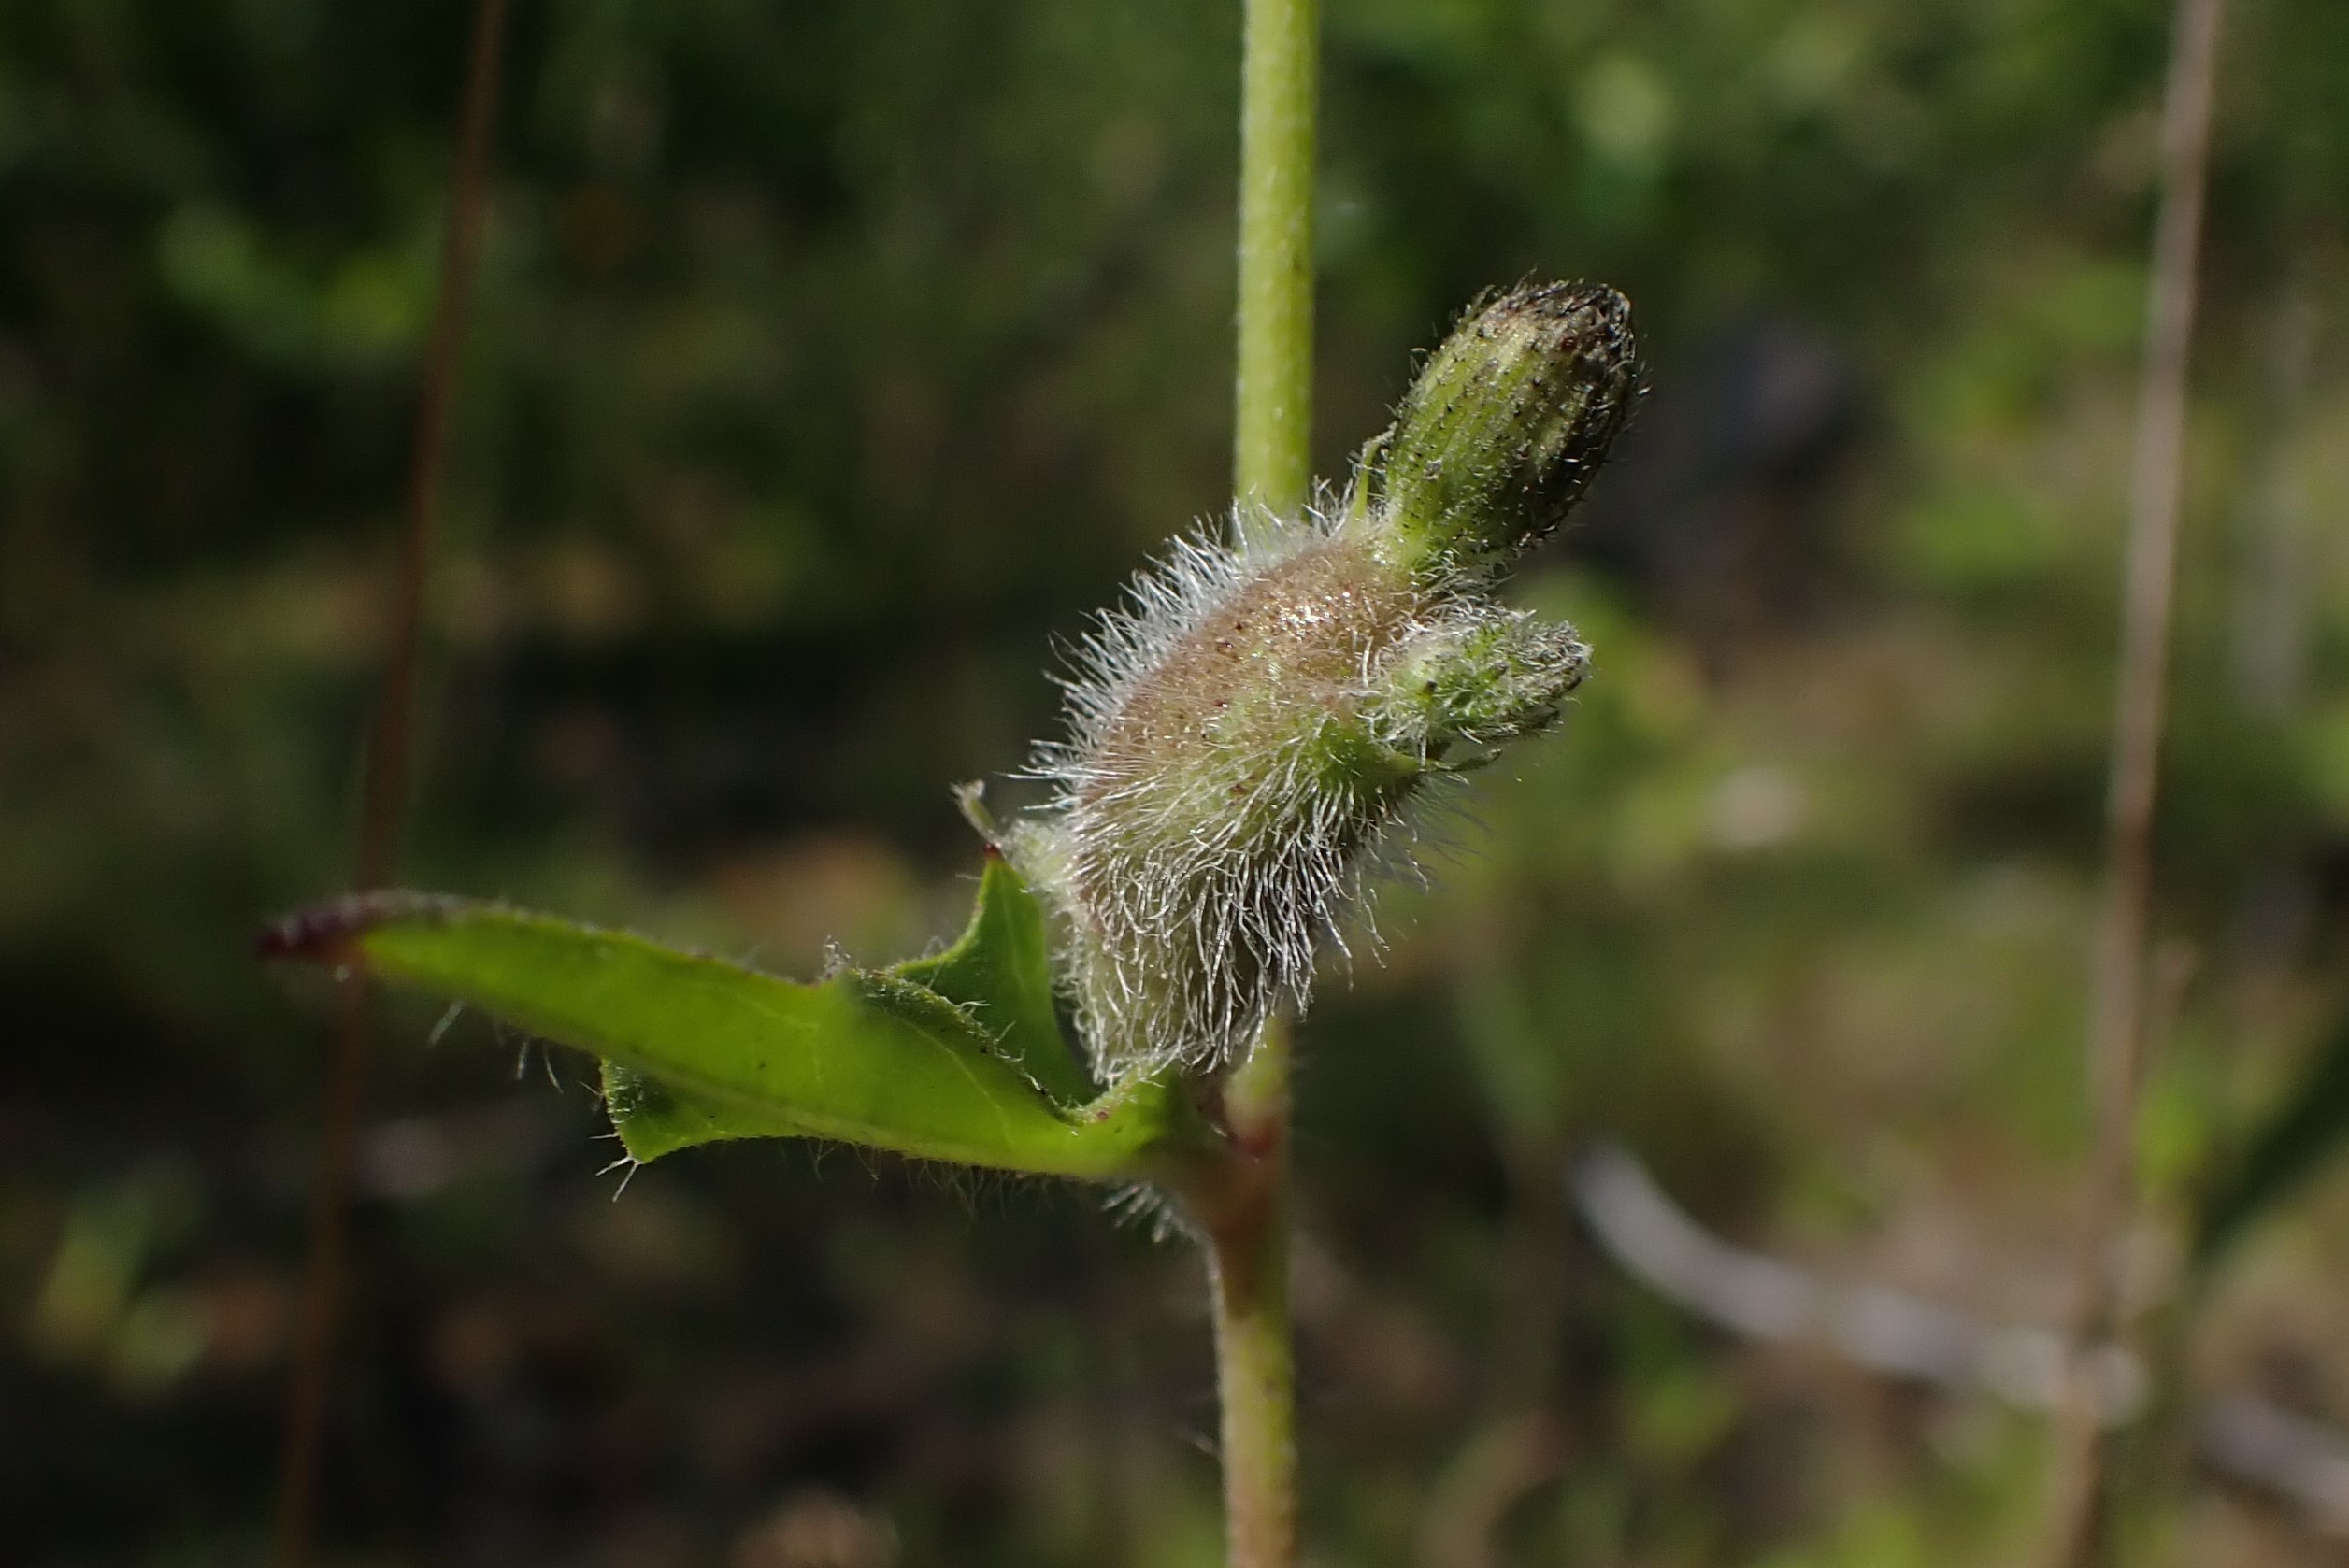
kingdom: Animalia
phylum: Arthropoda
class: Insecta
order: Hymenoptera
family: Cynipidae
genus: Aulacidea
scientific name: Aulacidea hieracii
